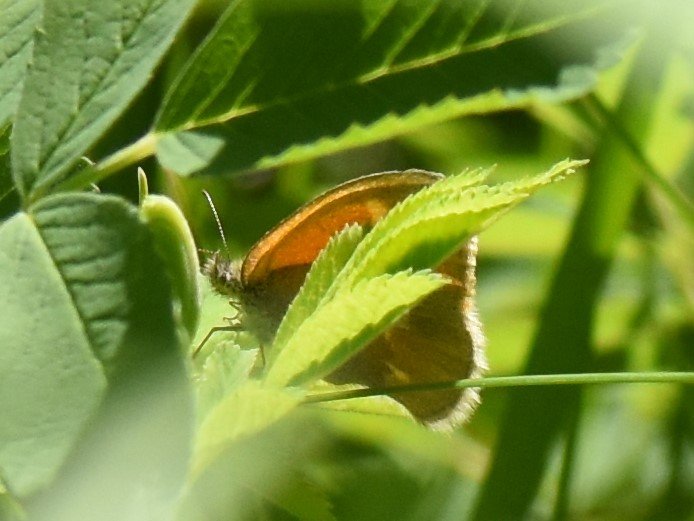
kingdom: Animalia
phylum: Arthropoda
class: Insecta
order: Lepidoptera
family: Nymphalidae
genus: Coenonympha
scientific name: Coenonympha tullia
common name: Large Heath
